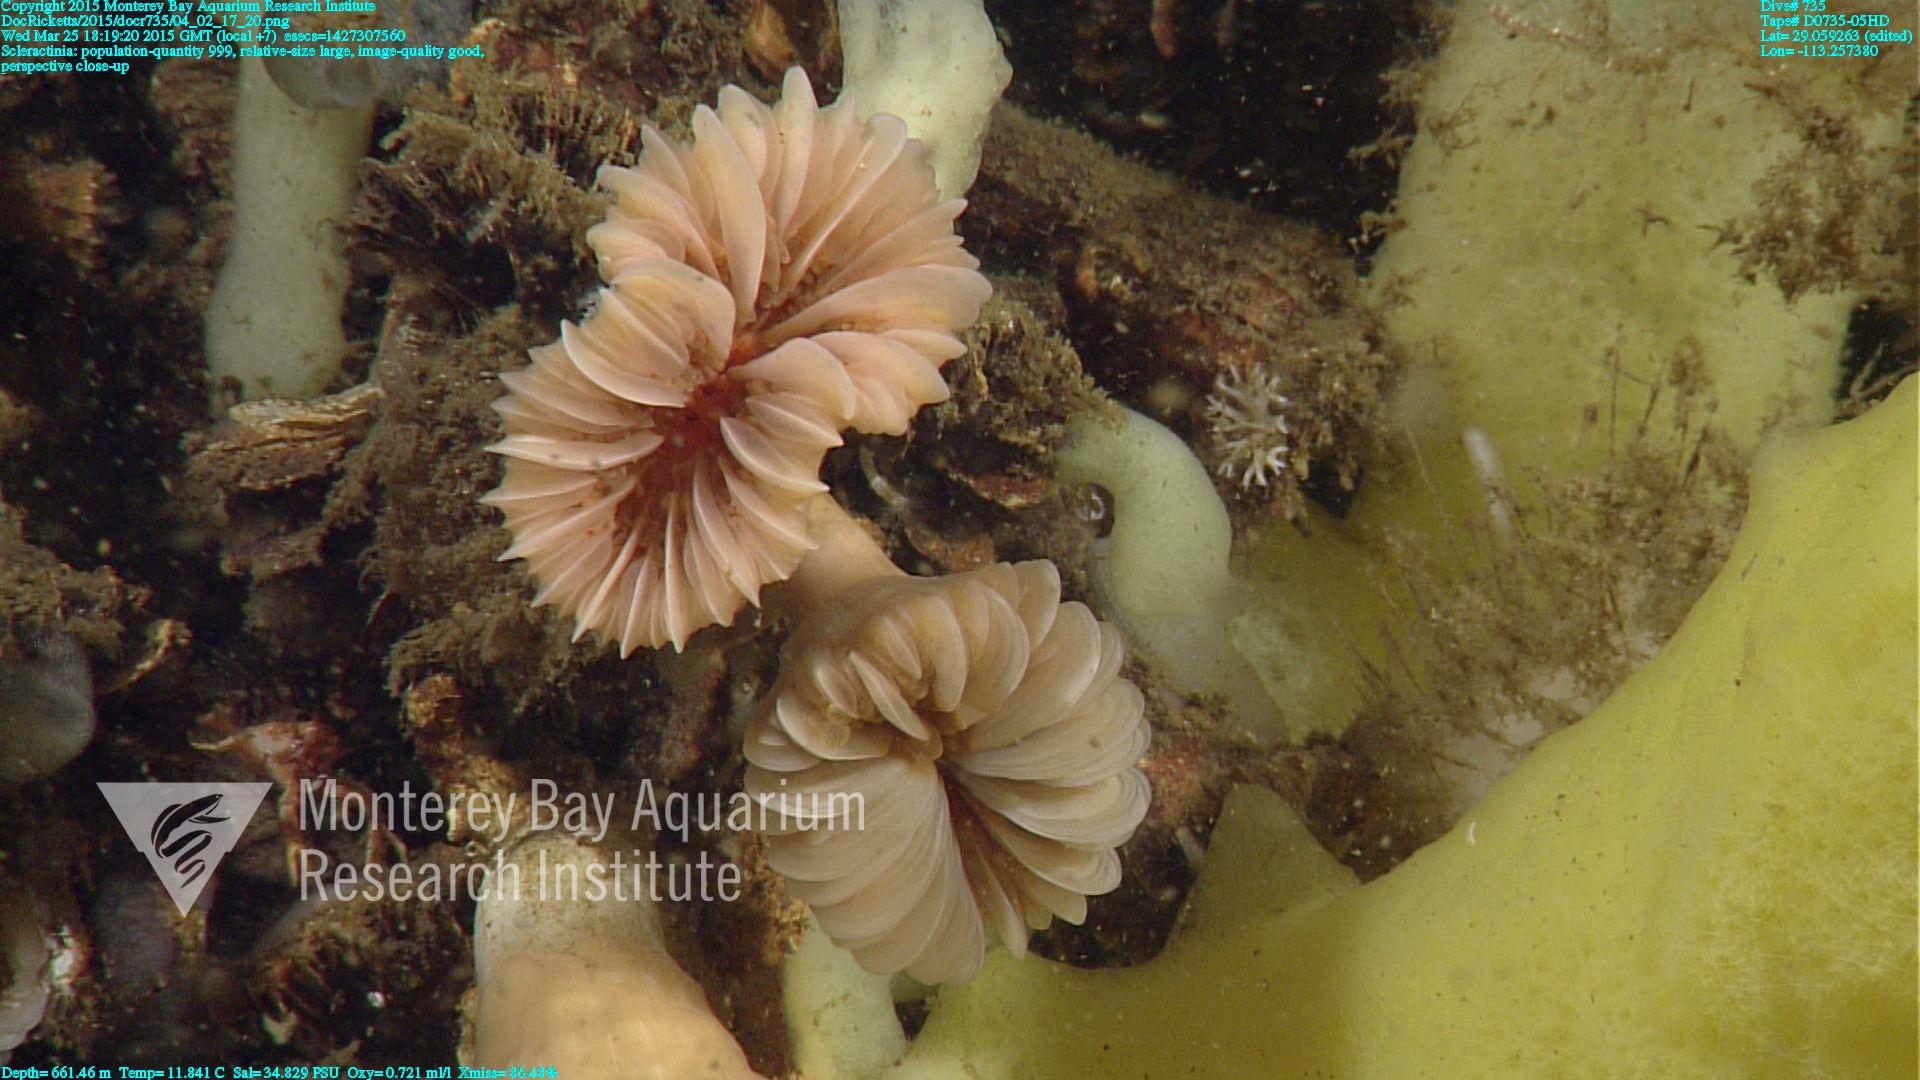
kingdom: Animalia
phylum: Cnidaria
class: Anthozoa
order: Scleractinia
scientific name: Scleractinia
